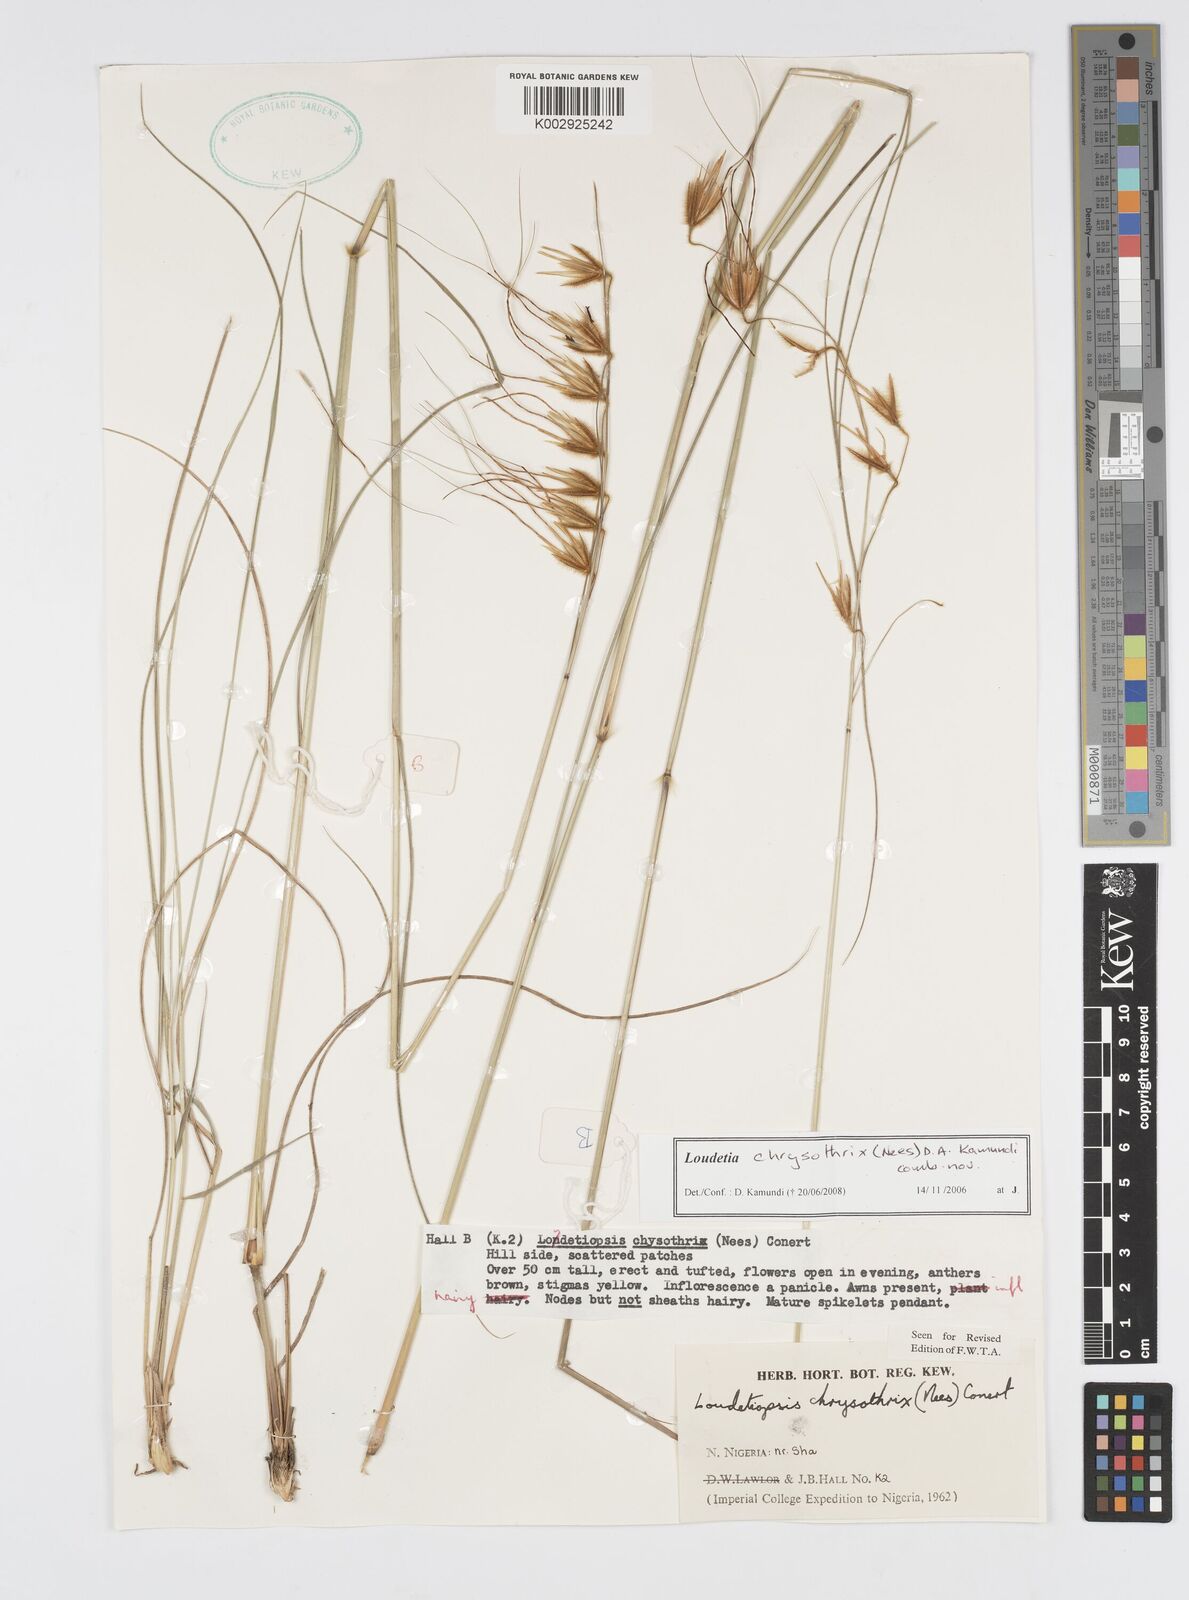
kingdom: Plantae
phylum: Tracheophyta
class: Liliopsida
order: Poales
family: Poaceae
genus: Loudetiopsis
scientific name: Loudetiopsis chrysothrix
